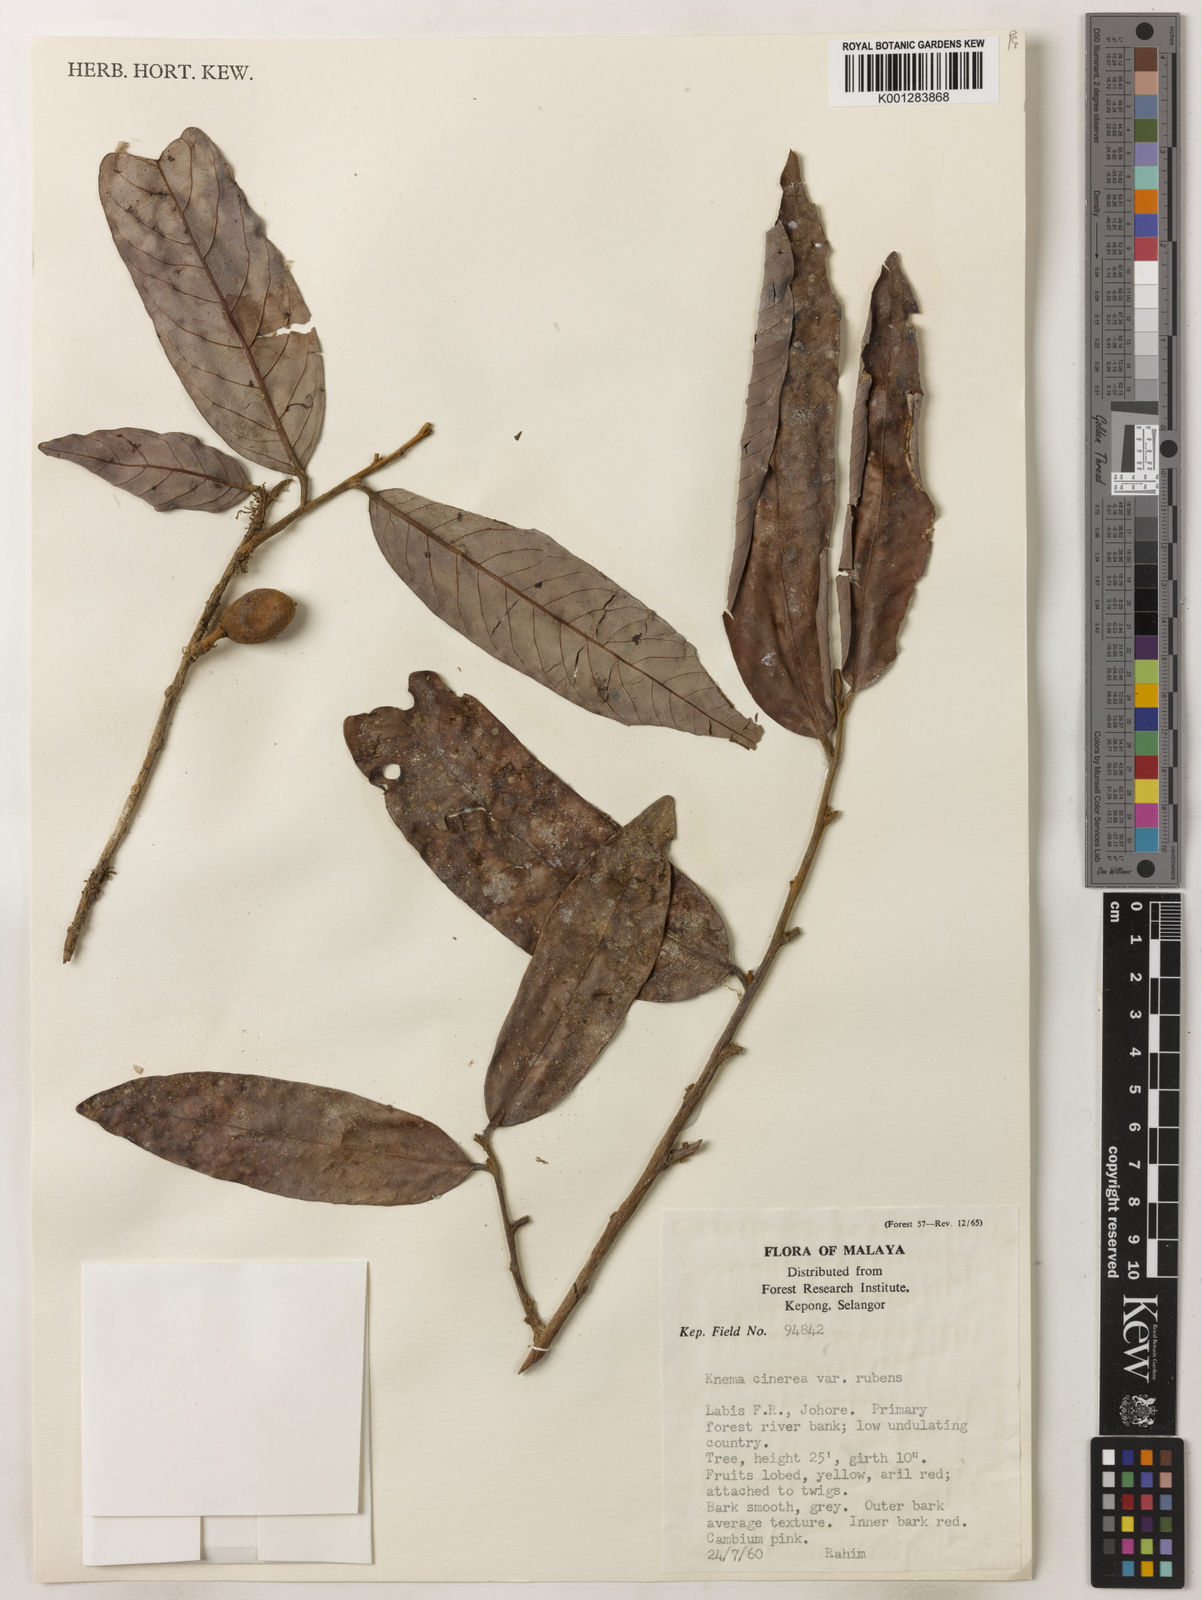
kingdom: Plantae
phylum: Tracheophyta
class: Magnoliopsida
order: Magnoliales
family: Myristicaceae
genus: Knema
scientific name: Knema
